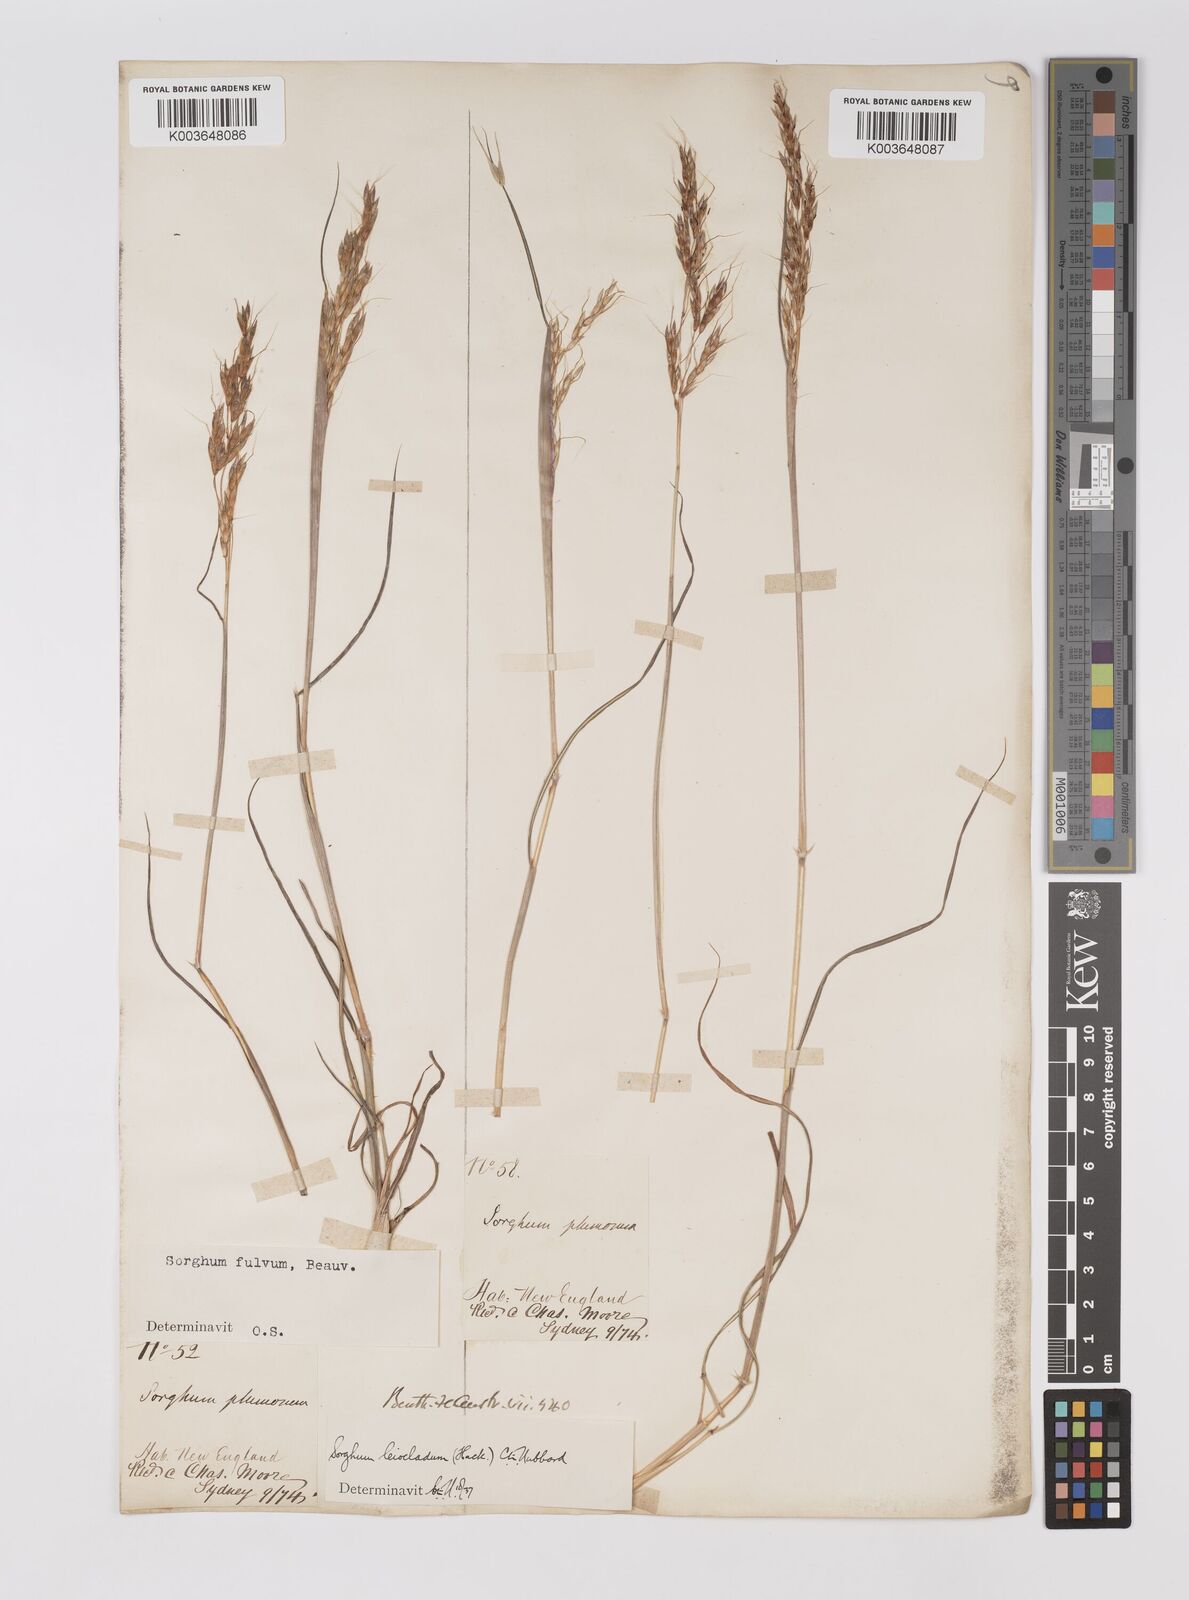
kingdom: Plantae
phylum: Tracheophyta
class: Liliopsida
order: Poales
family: Poaceae
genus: Sarga
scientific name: Sarga leioclada
